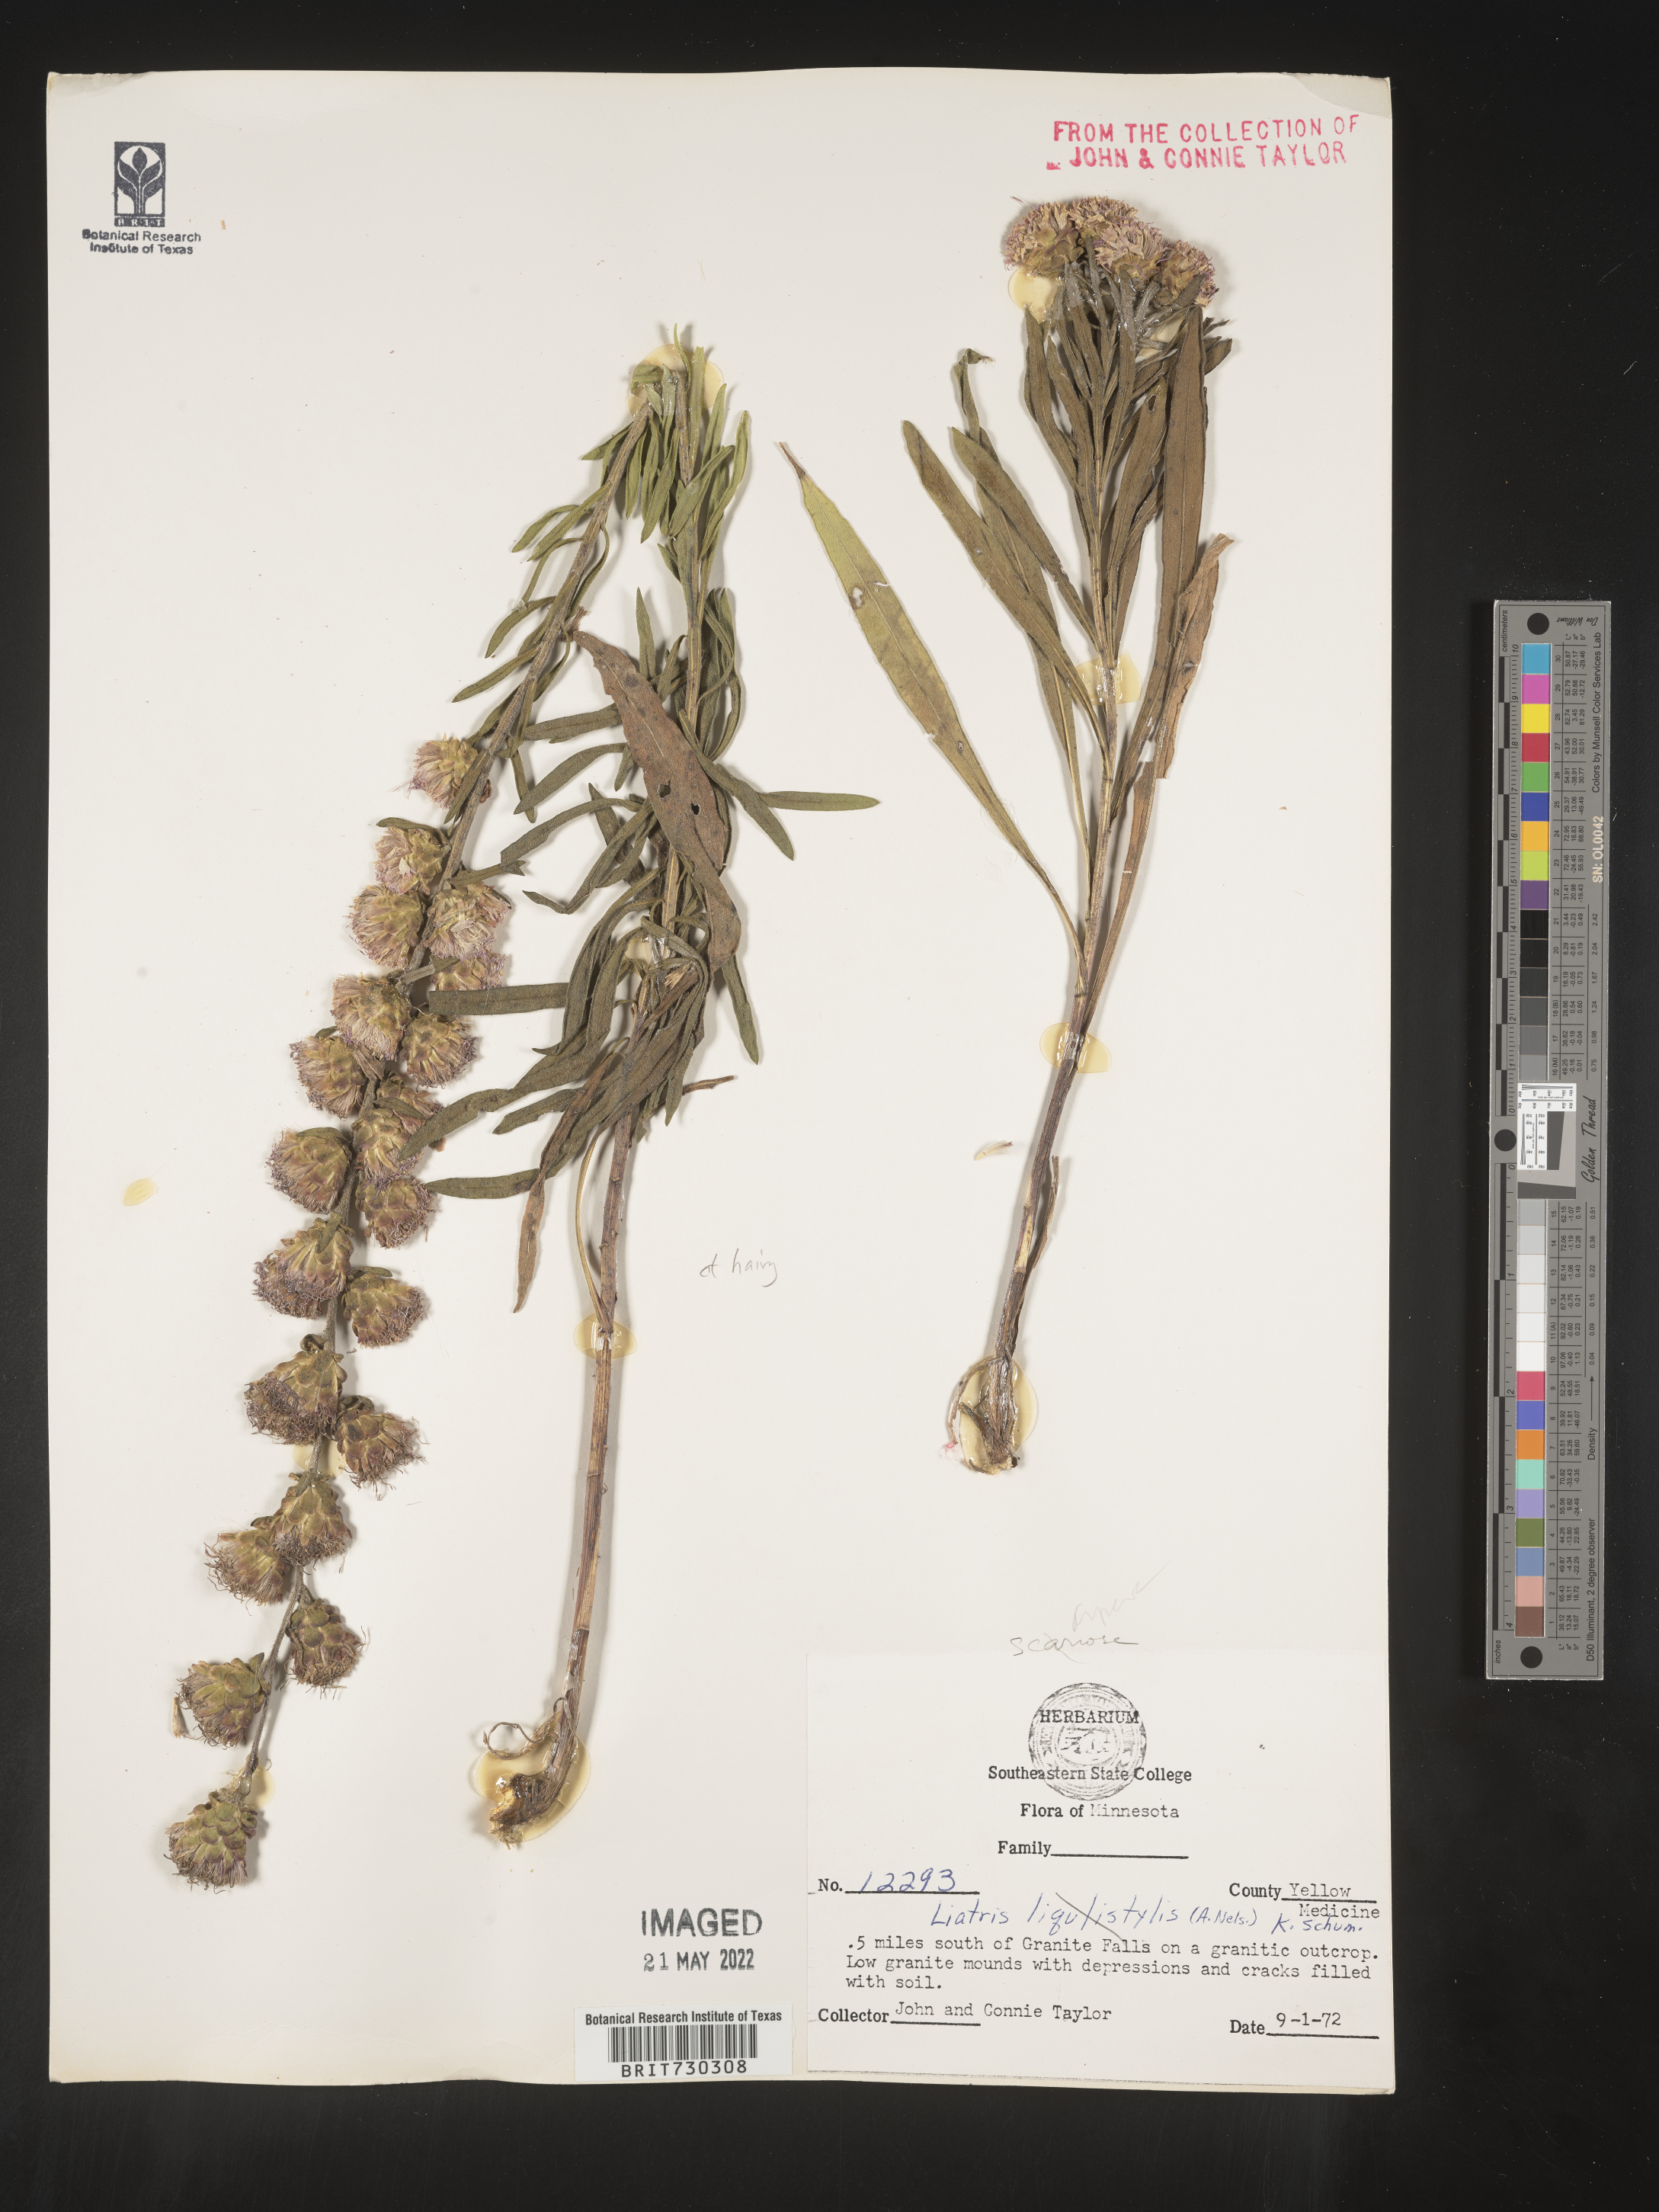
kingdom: Plantae
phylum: Tracheophyta
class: Magnoliopsida
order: Asterales
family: Asteraceae
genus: Liatris
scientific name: Liatris aspera
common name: Lacerate blazing-star
